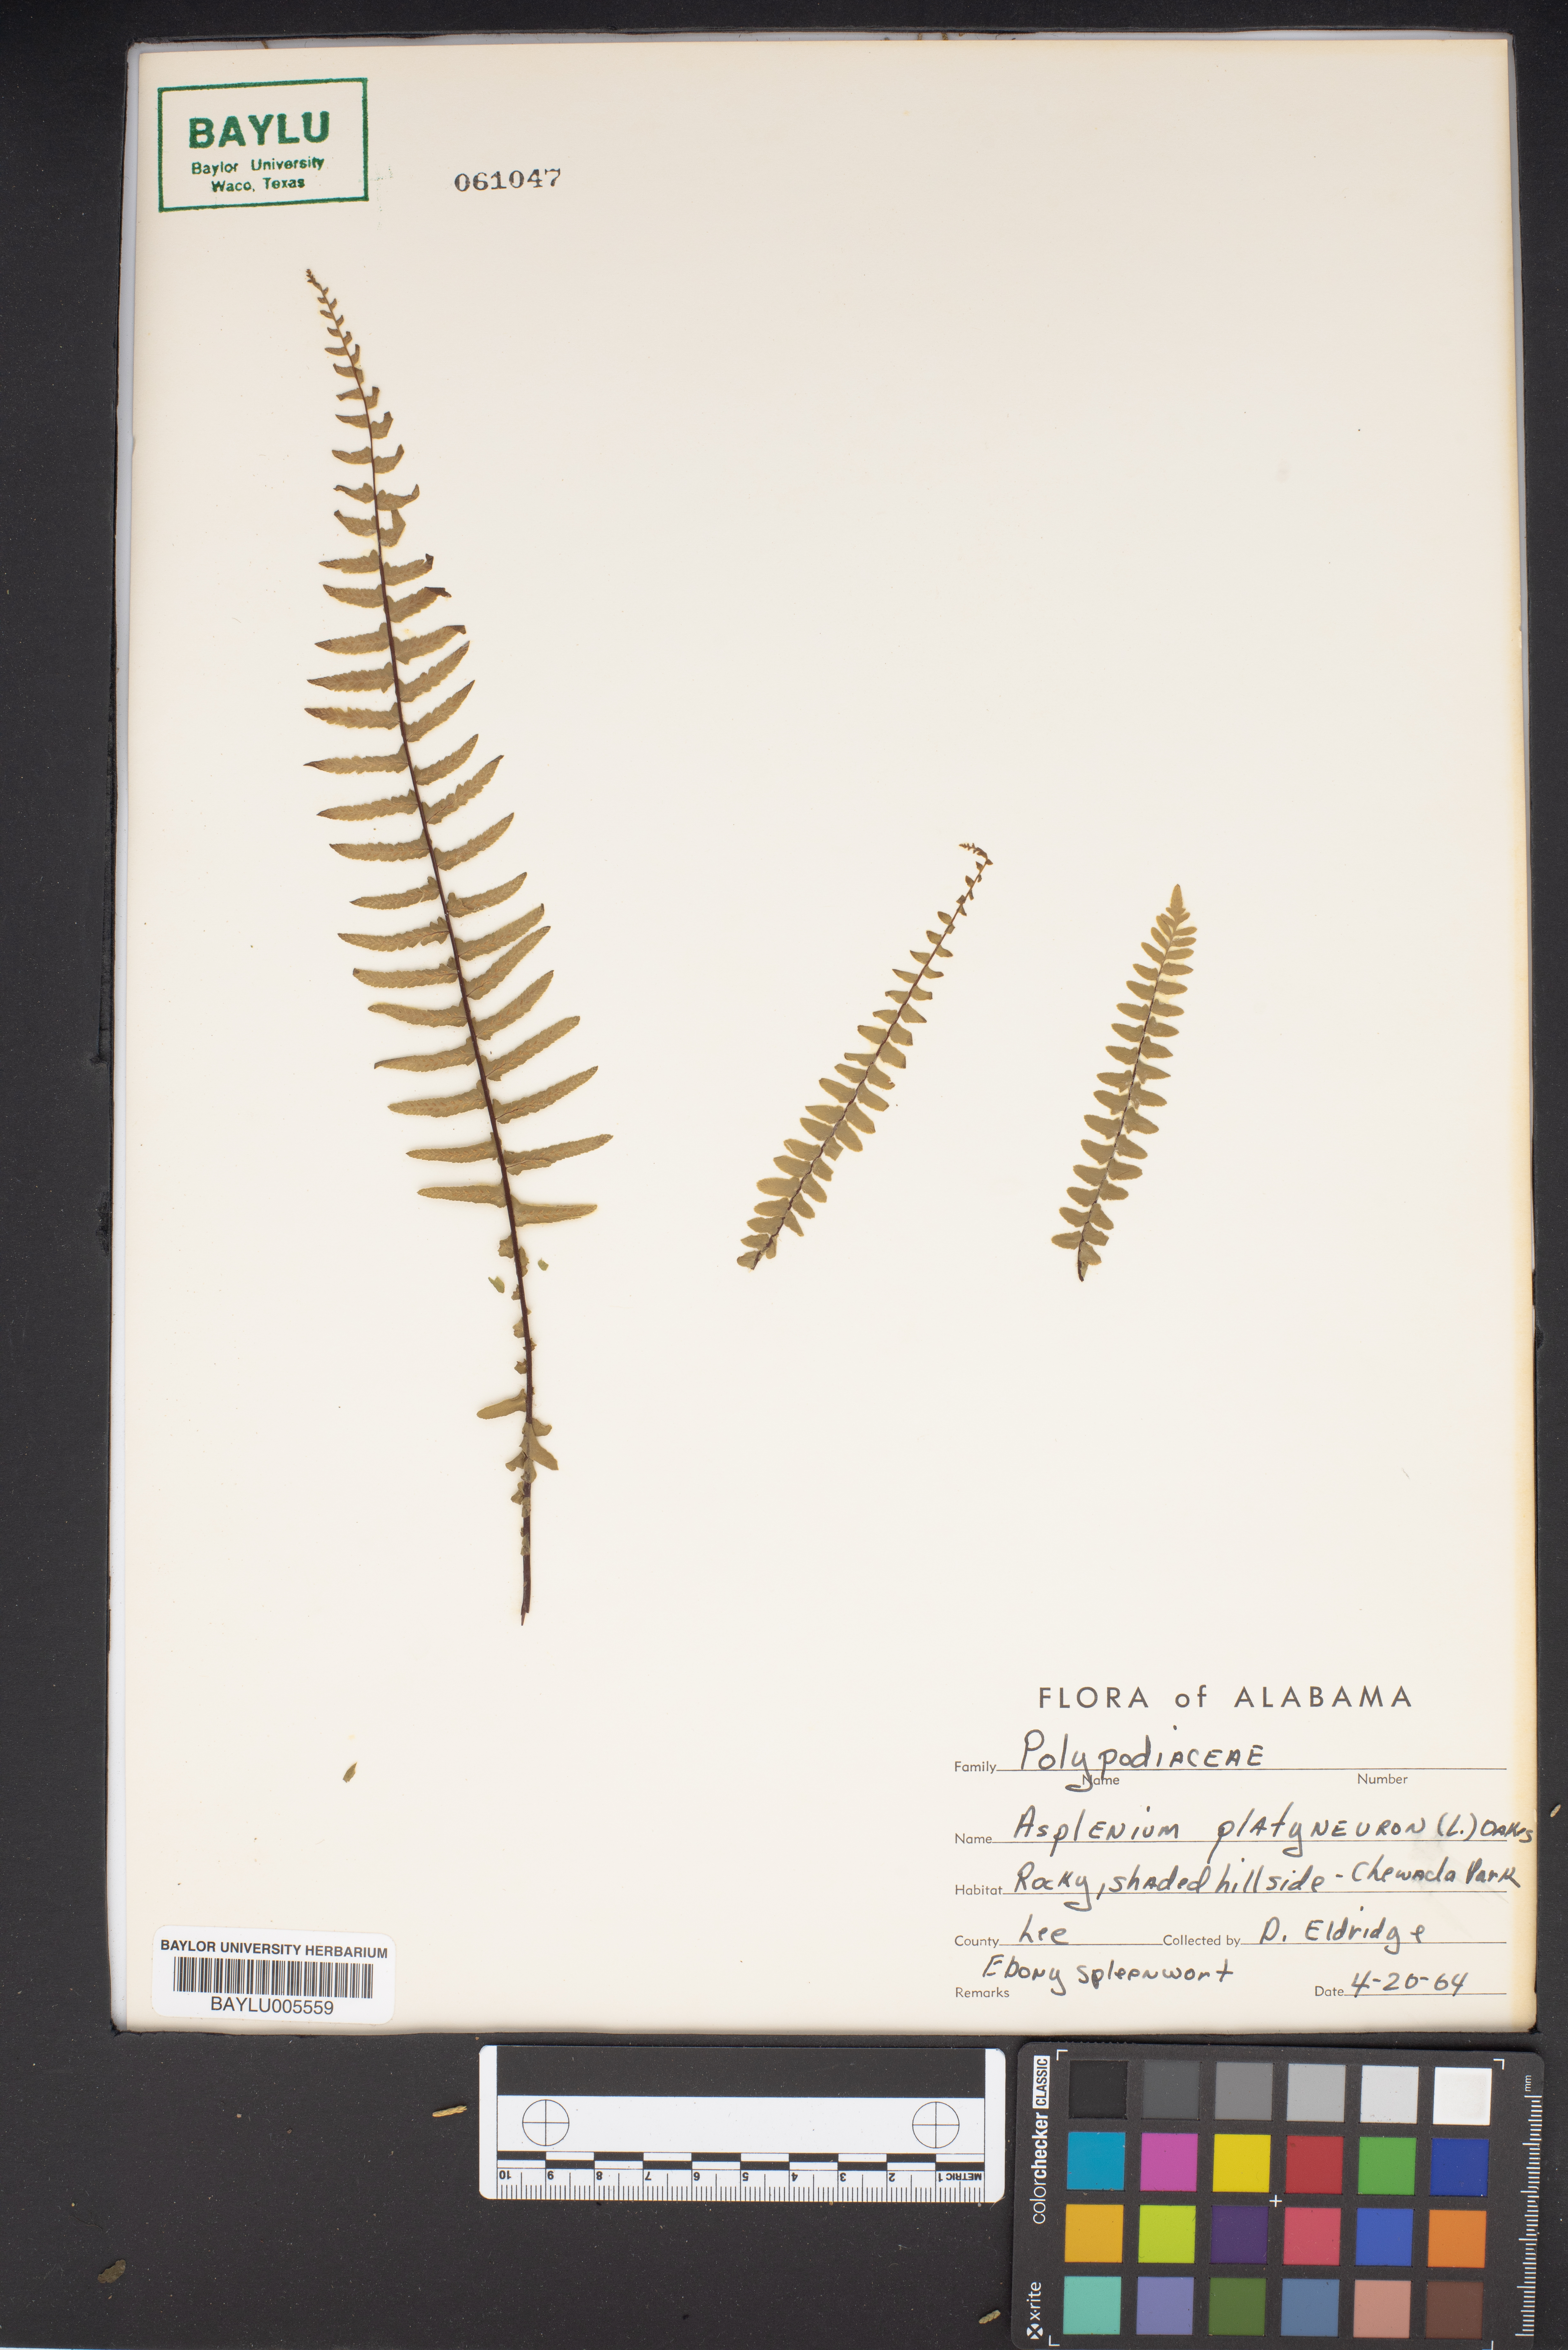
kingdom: Plantae
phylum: Tracheophyta
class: Polypodiopsida
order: Polypodiales
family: Aspleniaceae
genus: Asplenium
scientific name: Asplenium platyneuron
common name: Ebony spleenwort
